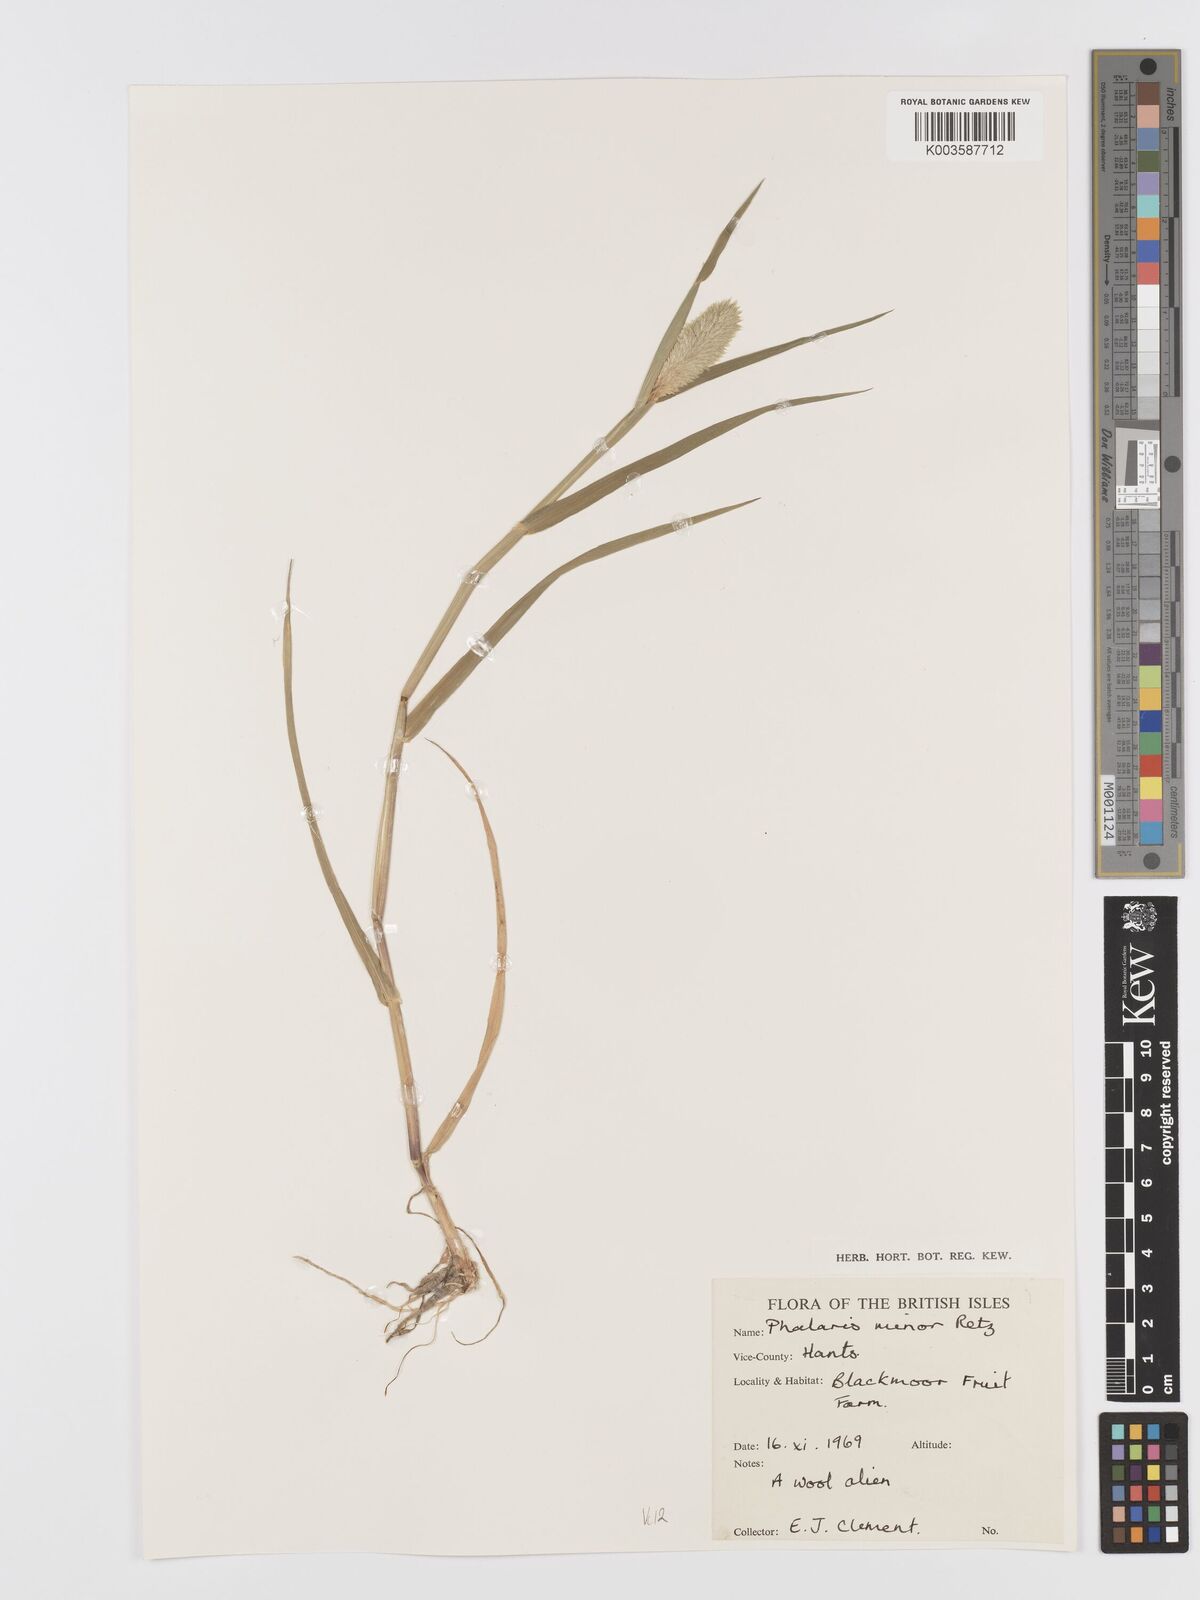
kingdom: Plantae
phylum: Tracheophyta
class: Liliopsida
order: Poales
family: Poaceae
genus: Phalaris
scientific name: Phalaris minor
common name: Littleseed canarygrass
